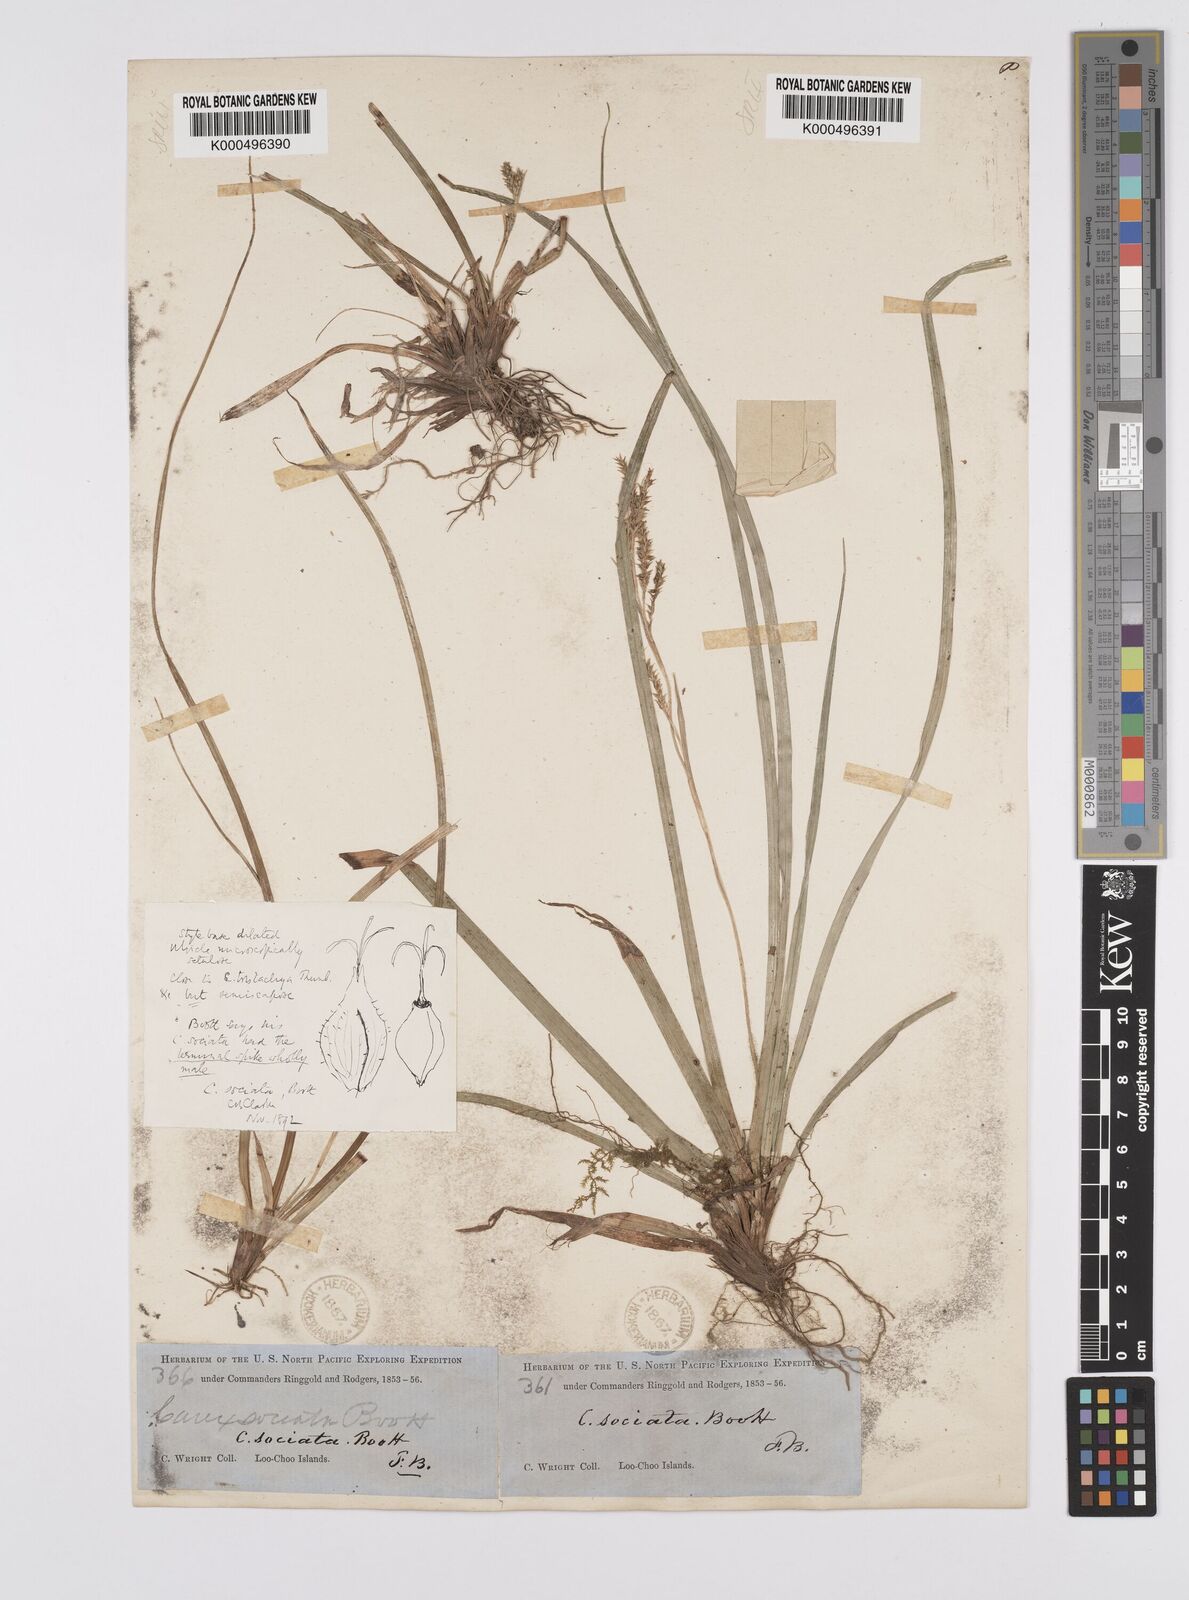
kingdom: Plantae
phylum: Tracheophyta
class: Liliopsida
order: Poales
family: Cyperaceae
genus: Carex
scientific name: Carex chinensis
